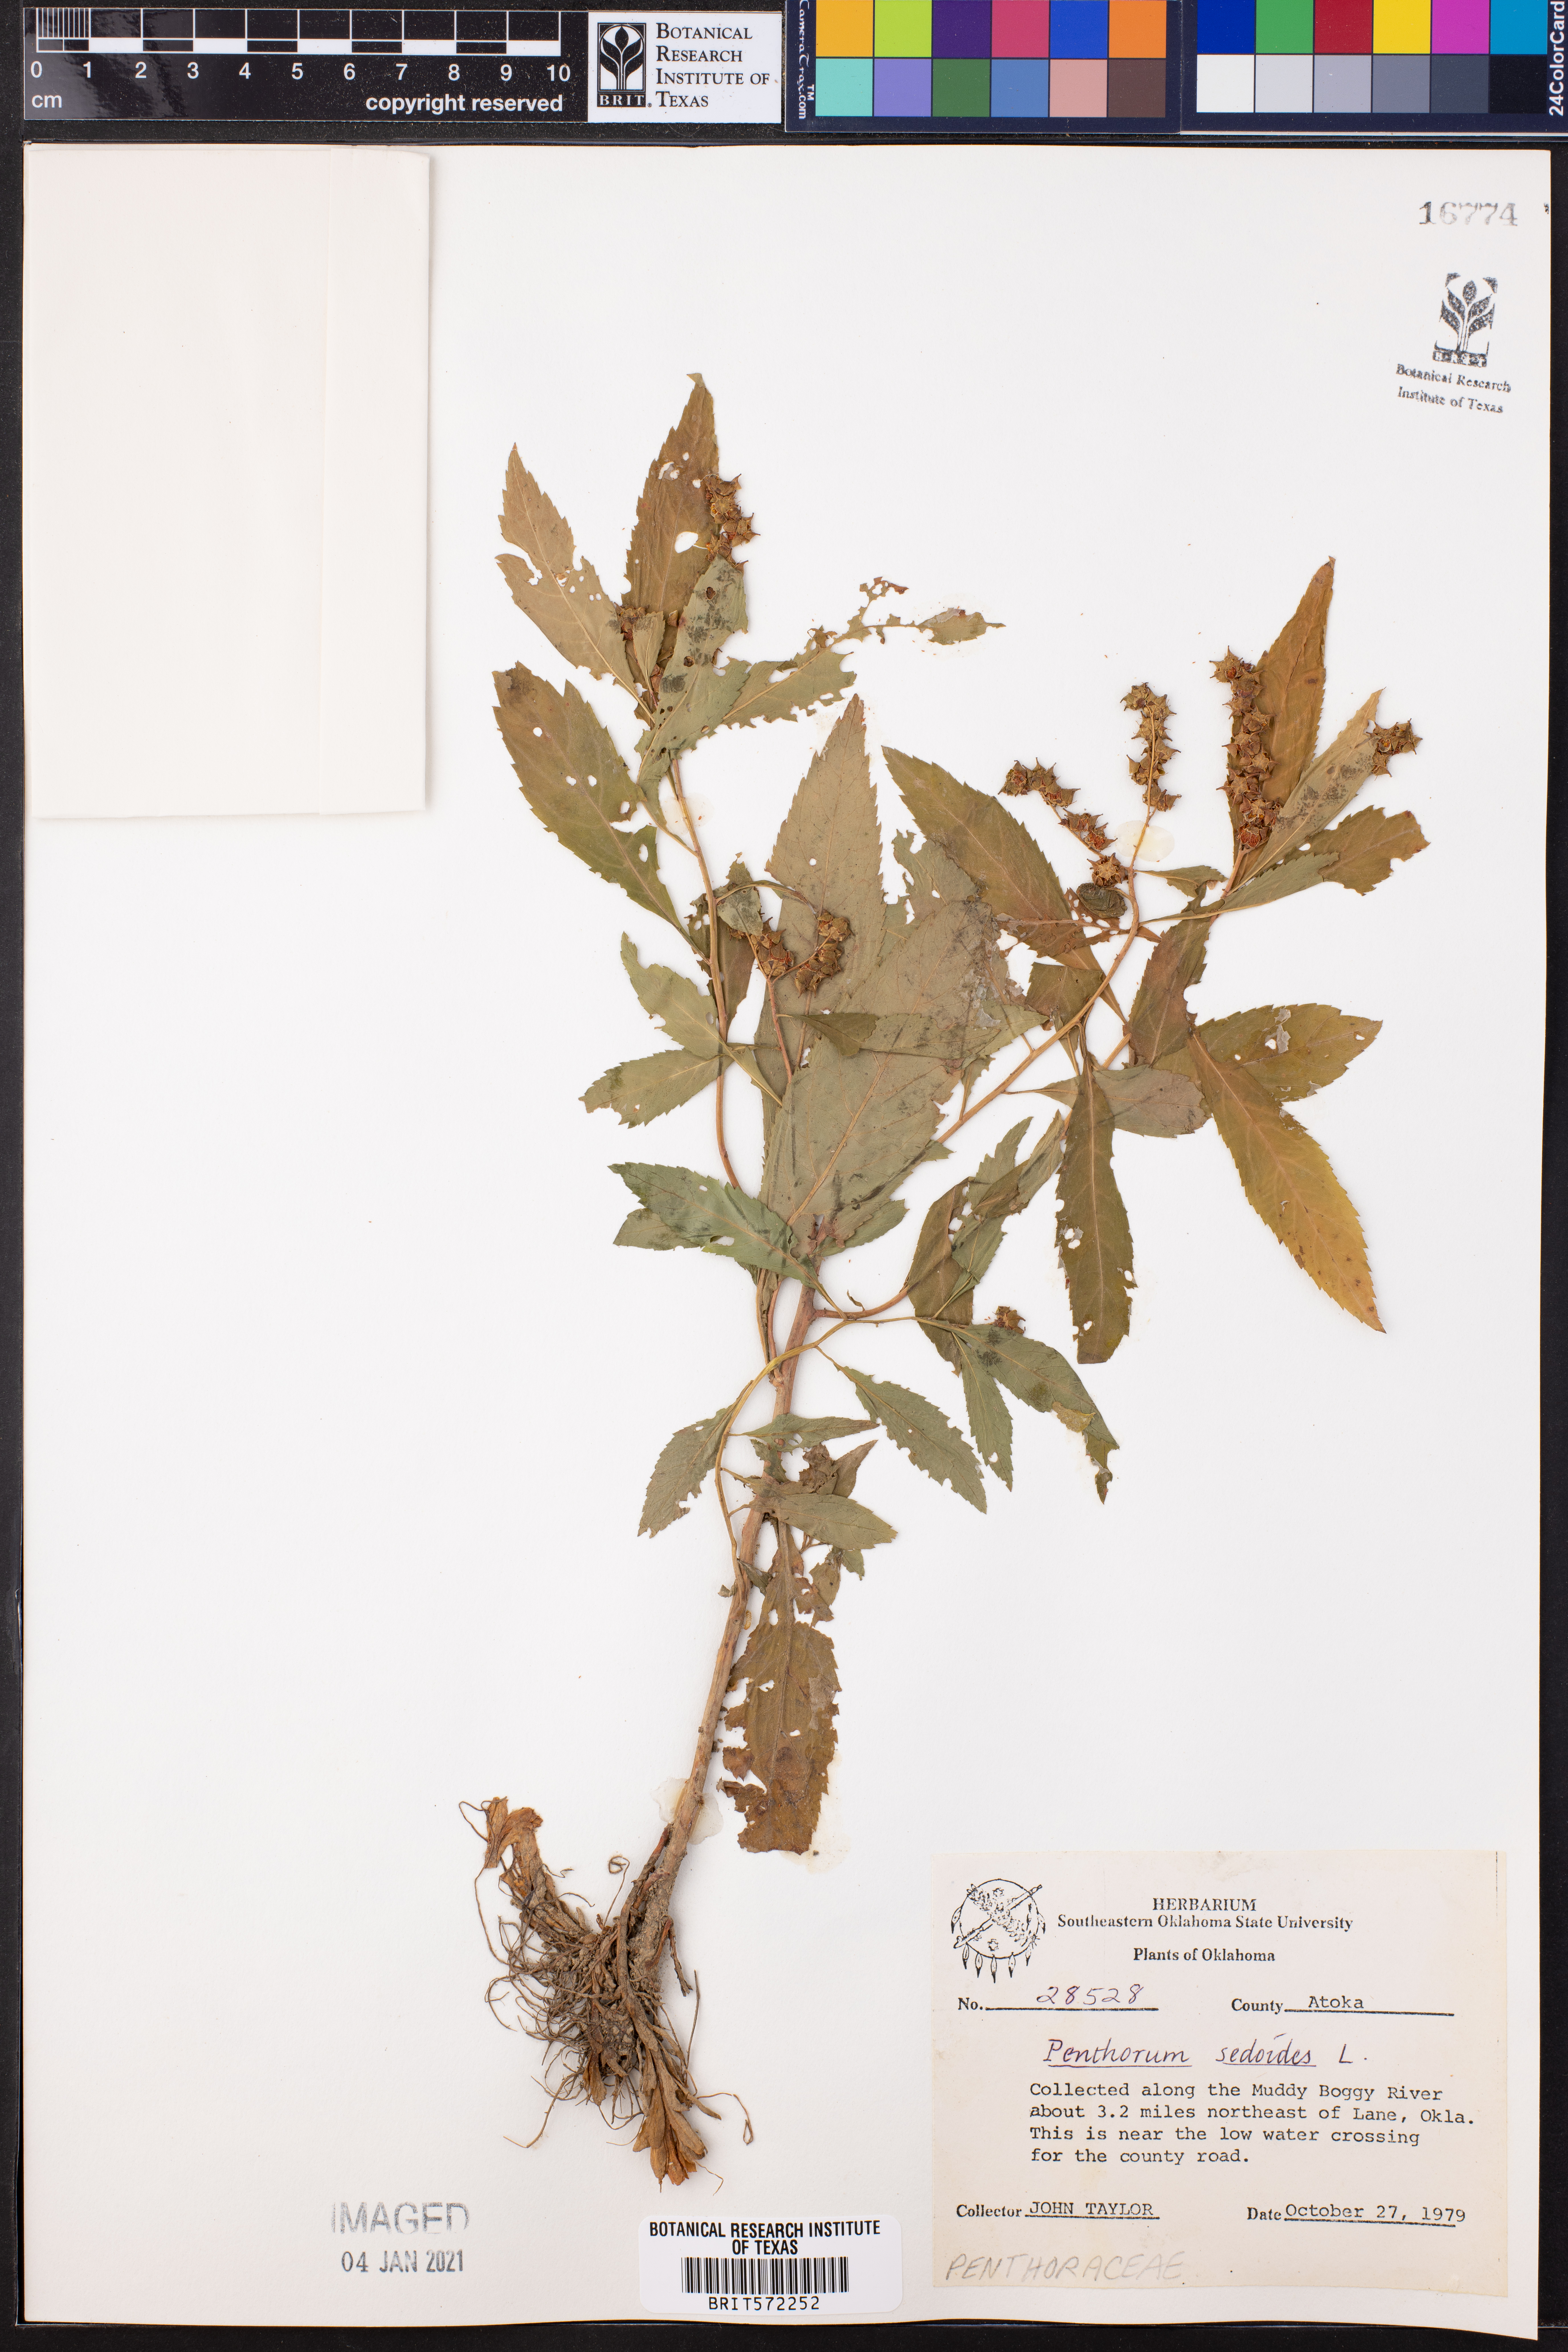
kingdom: Plantae
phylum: Tracheophyta
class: Magnoliopsida
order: Saxifragales
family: Penthoraceae
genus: Penthorum
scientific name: Penthorum sedoides
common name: Ditch stonecrop
